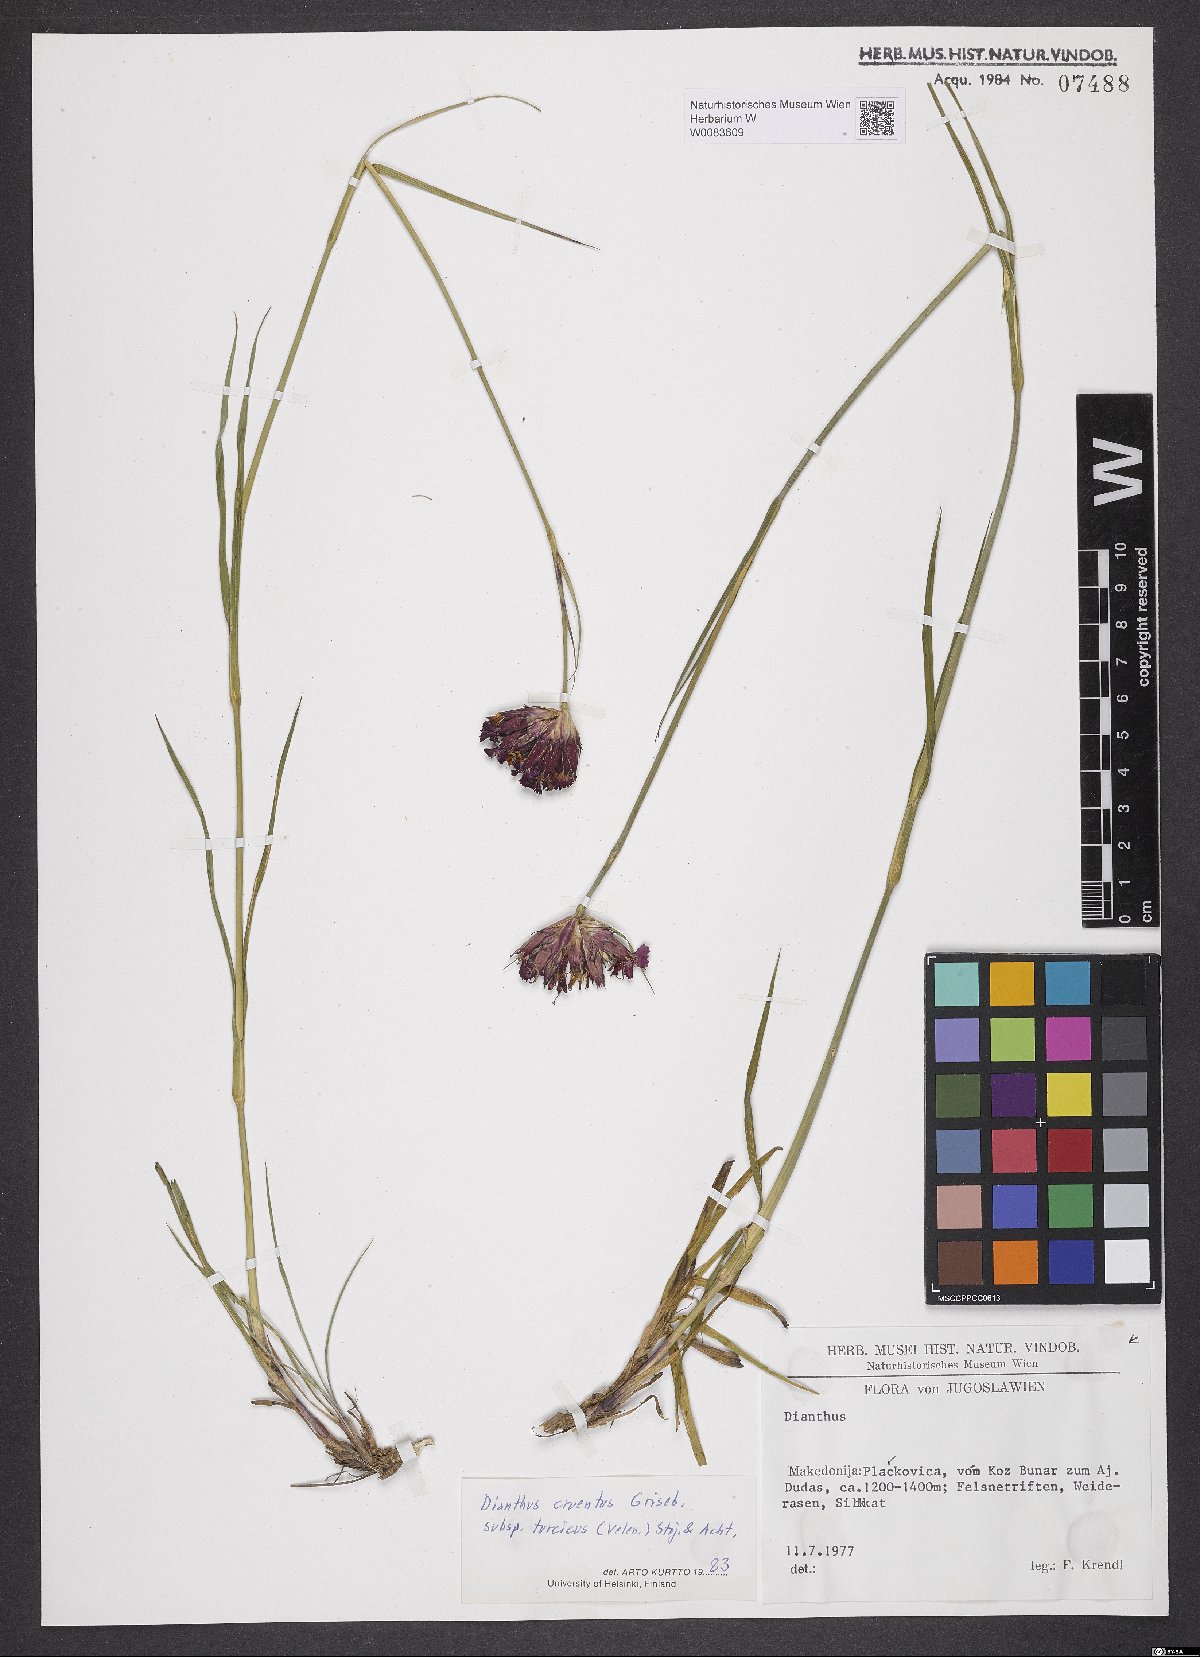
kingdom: Plantae
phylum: Tracheophyta
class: Magnoliopsida
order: Caryophyllales
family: Caryophyllaceae
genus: Dianthus
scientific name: Dianthus cruentus
